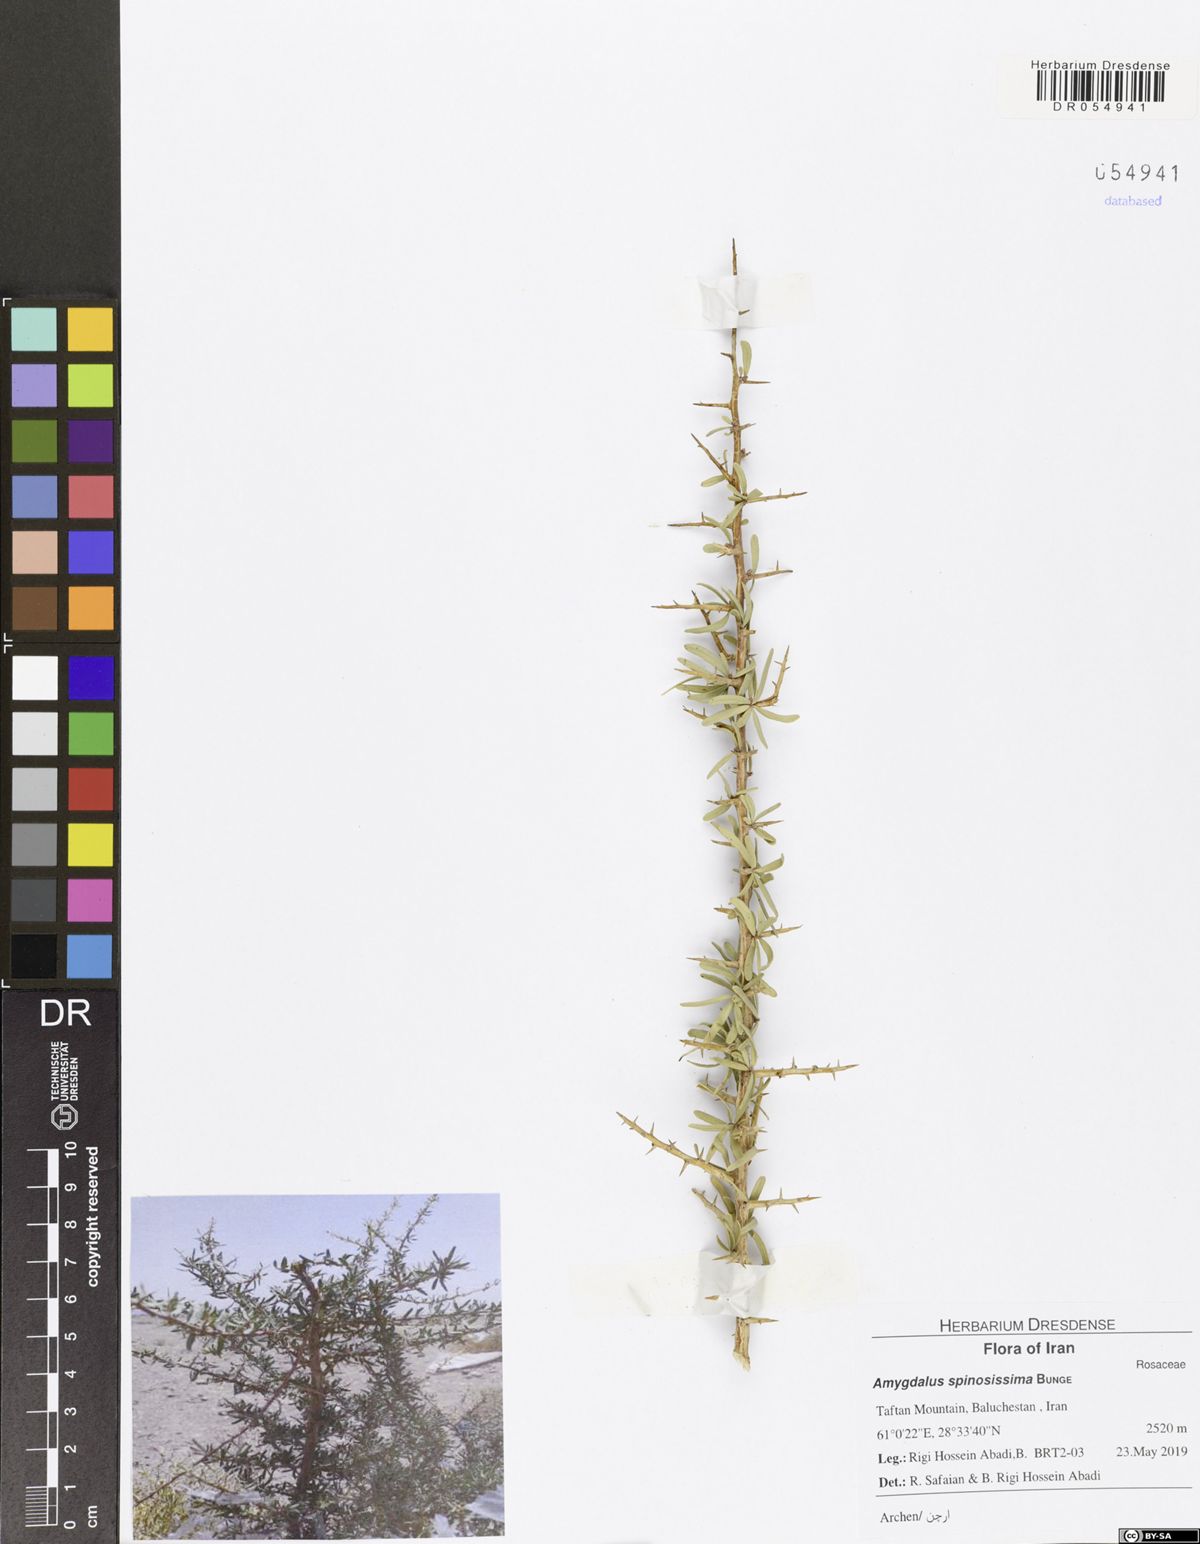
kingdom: Plantae
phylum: Tracheophyta
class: Magnoliopsida
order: Rosales
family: Rosaceae
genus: Prunus
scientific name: Prunus spinosissima
